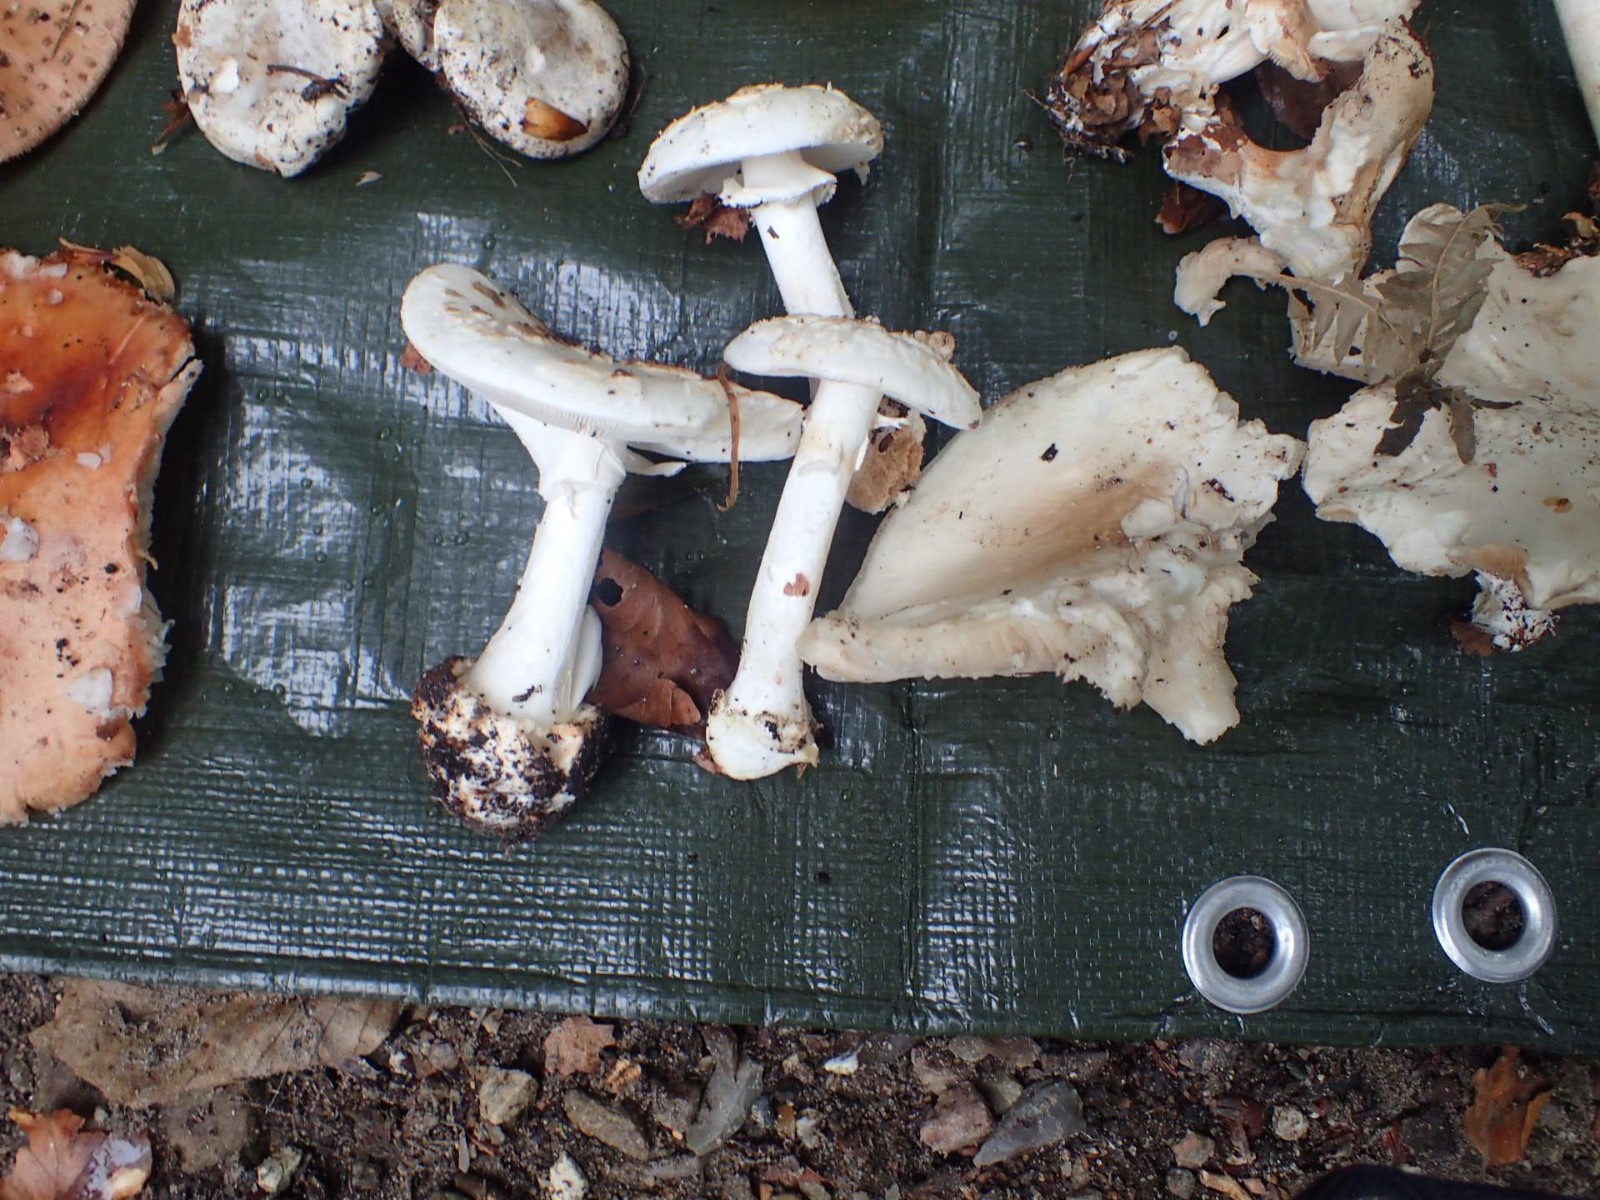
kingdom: Fungi
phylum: Basidiomycota
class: Agaricomycetes
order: Agaricales
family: Amanitaceae
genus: Amanita
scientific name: Amanita citrina
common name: kugleknoldet fluesvamp
